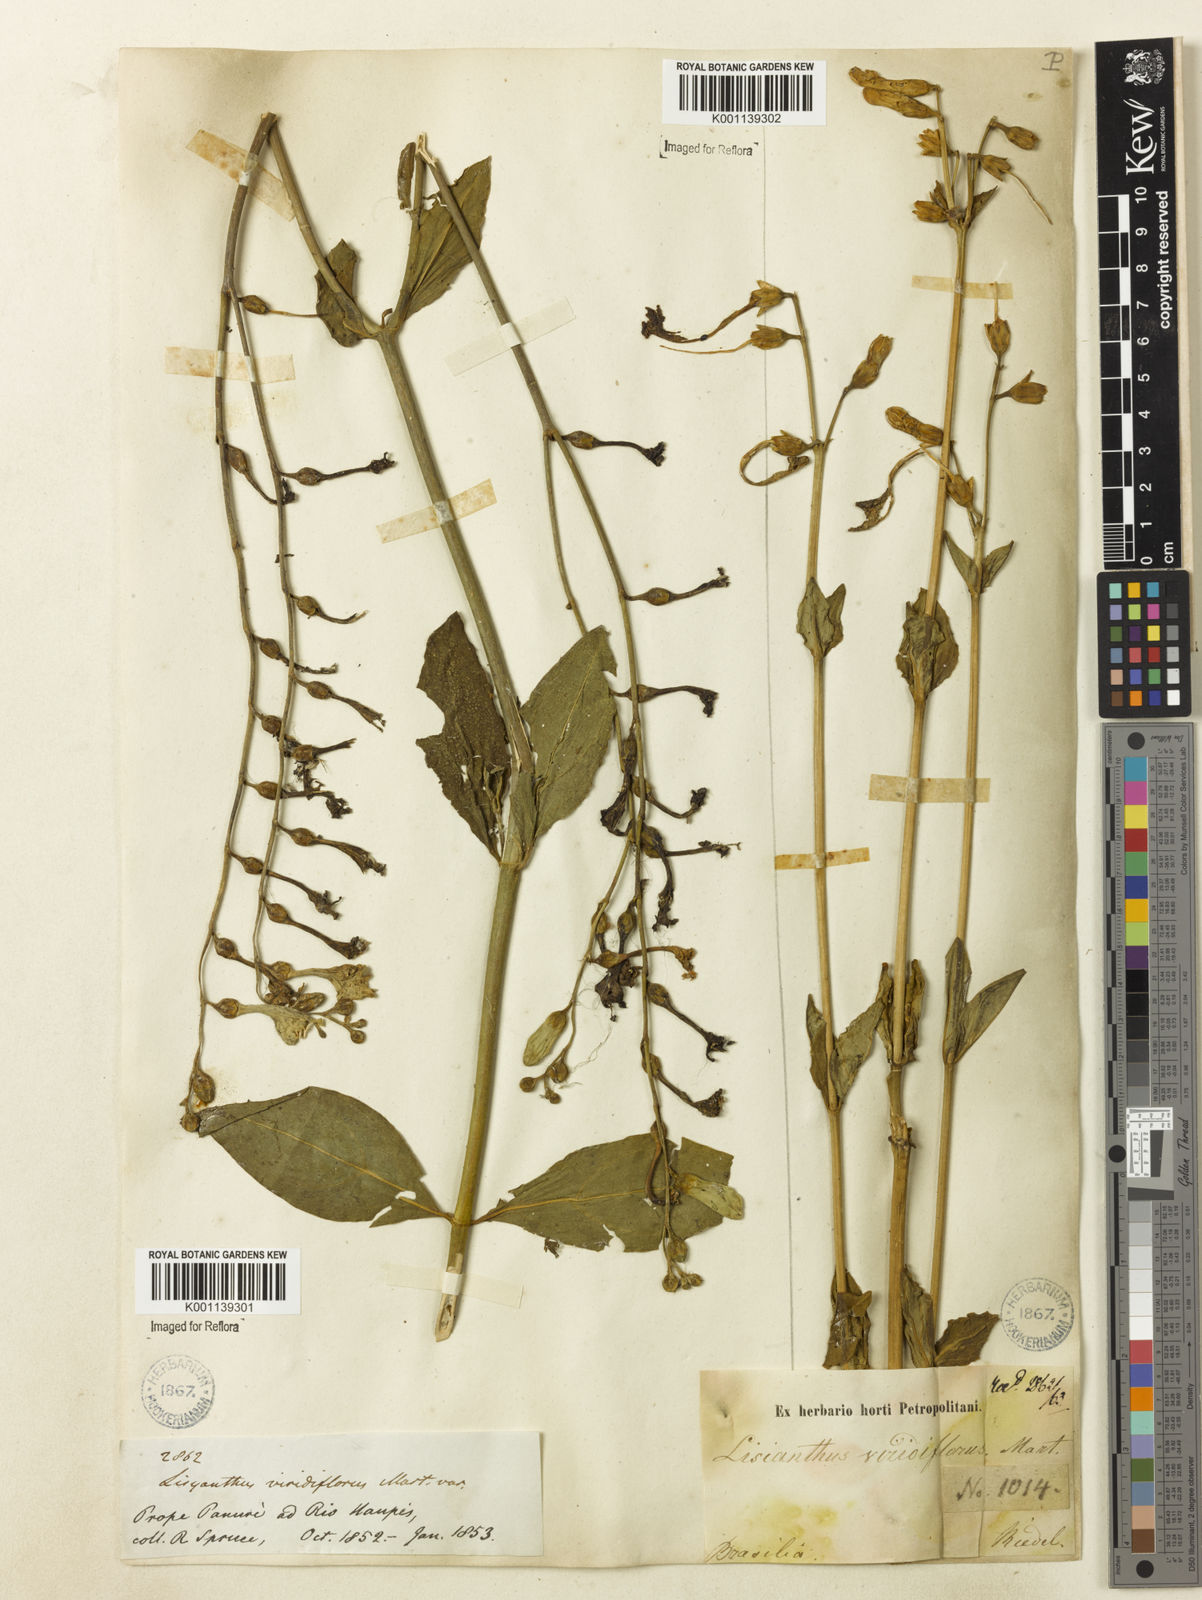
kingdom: Plantae
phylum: Tracheophyta
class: Magnoliopsida
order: Gentianales
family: Gentianaceae
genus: Chelonanthus
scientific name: Chelonanthus viridiflorus
